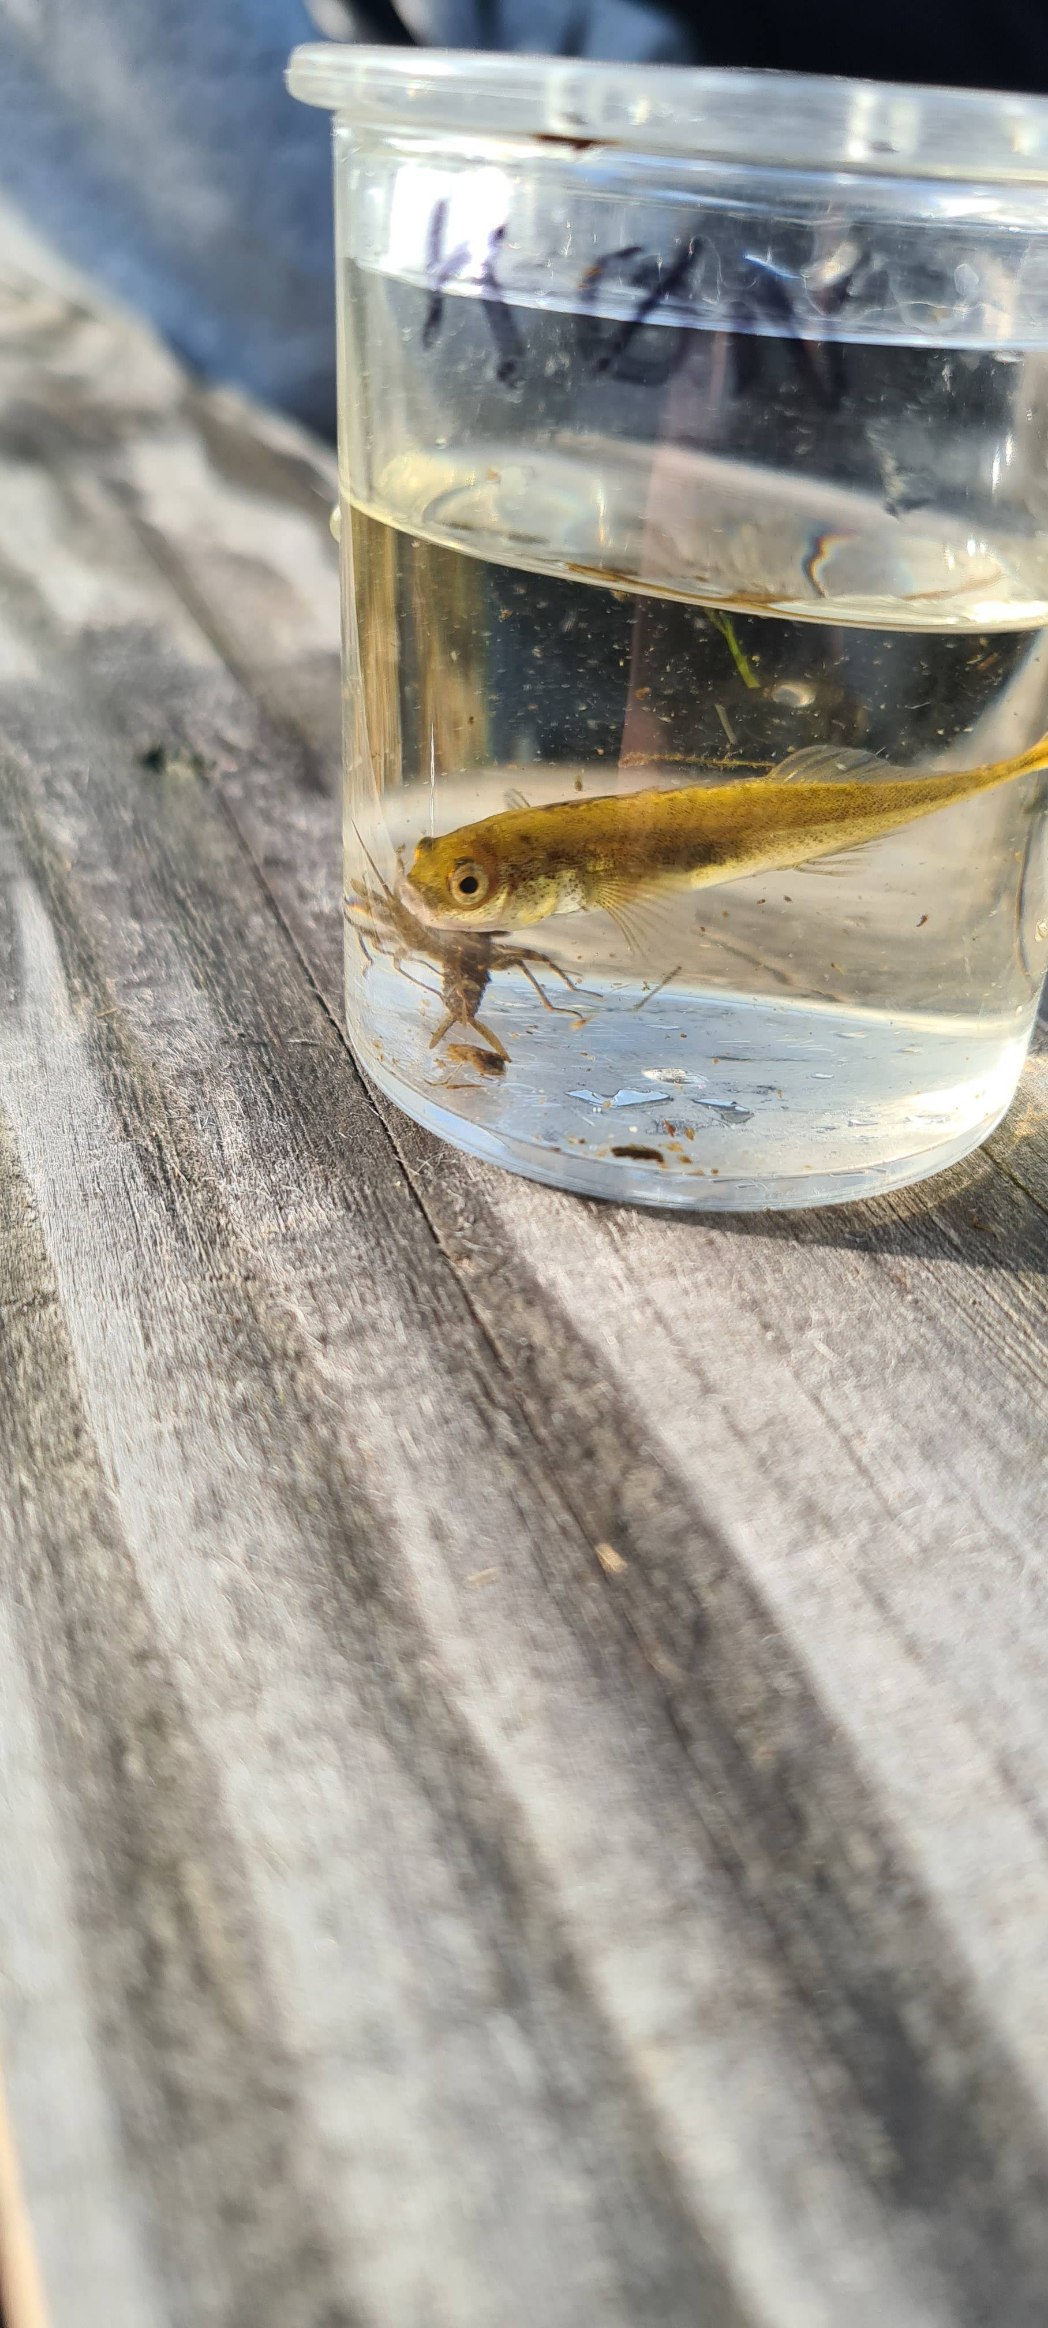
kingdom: Animalia
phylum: Chordata
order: Gasterosteiformes
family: Gasterosteidae
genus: Pungitius
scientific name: Pungitius pungitius
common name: Nipigget hundestejle
